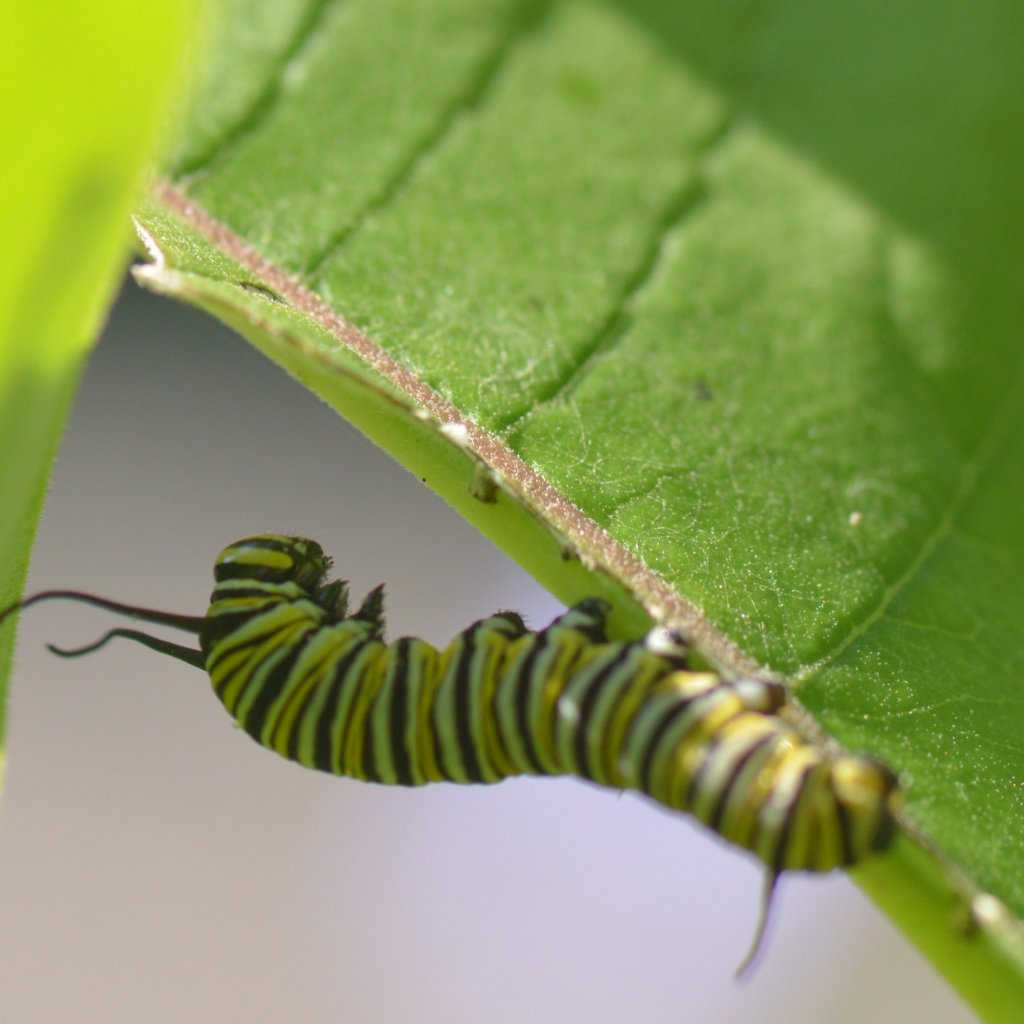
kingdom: Animalia
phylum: Arthropoda
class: Insecta
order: Lepidoptera
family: Nymphalidae
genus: Danaus
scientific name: Danaus plexippus
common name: Monarch
